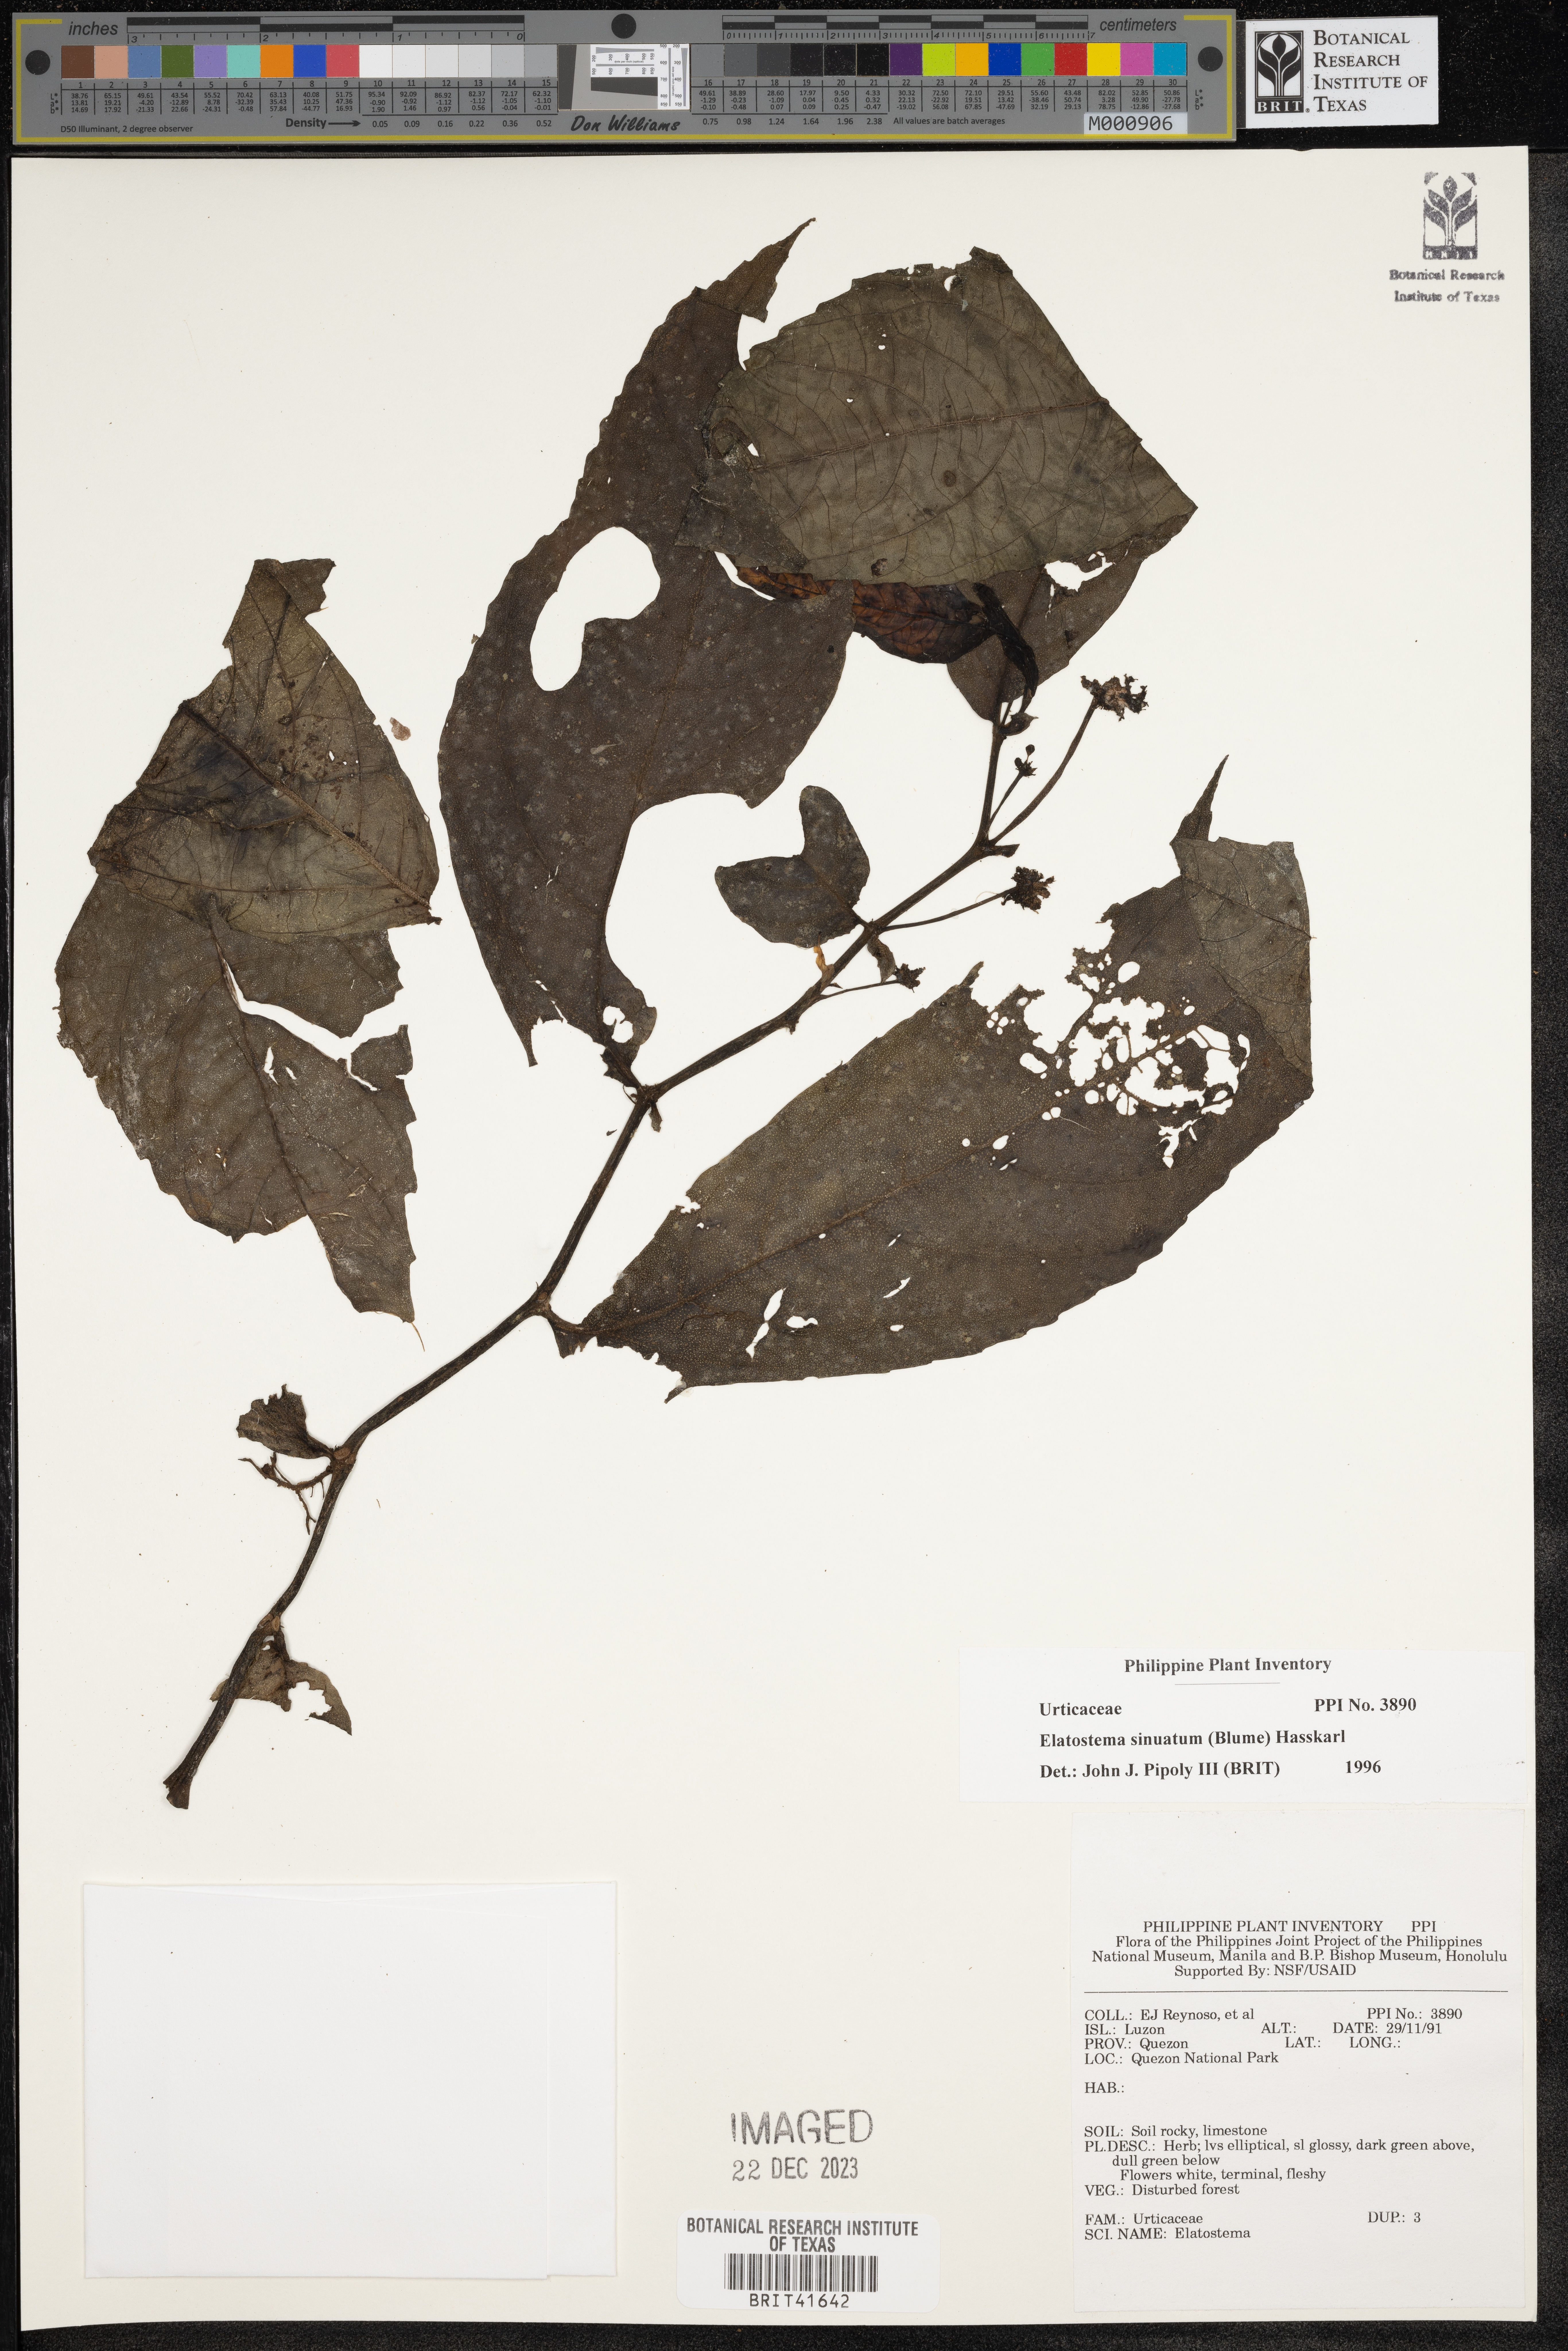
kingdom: Plantae
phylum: Tracheophyta
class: Magnoliopsida
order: Rosales
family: Urticaceae
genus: Elatostema
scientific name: Elatostema sinuatum
